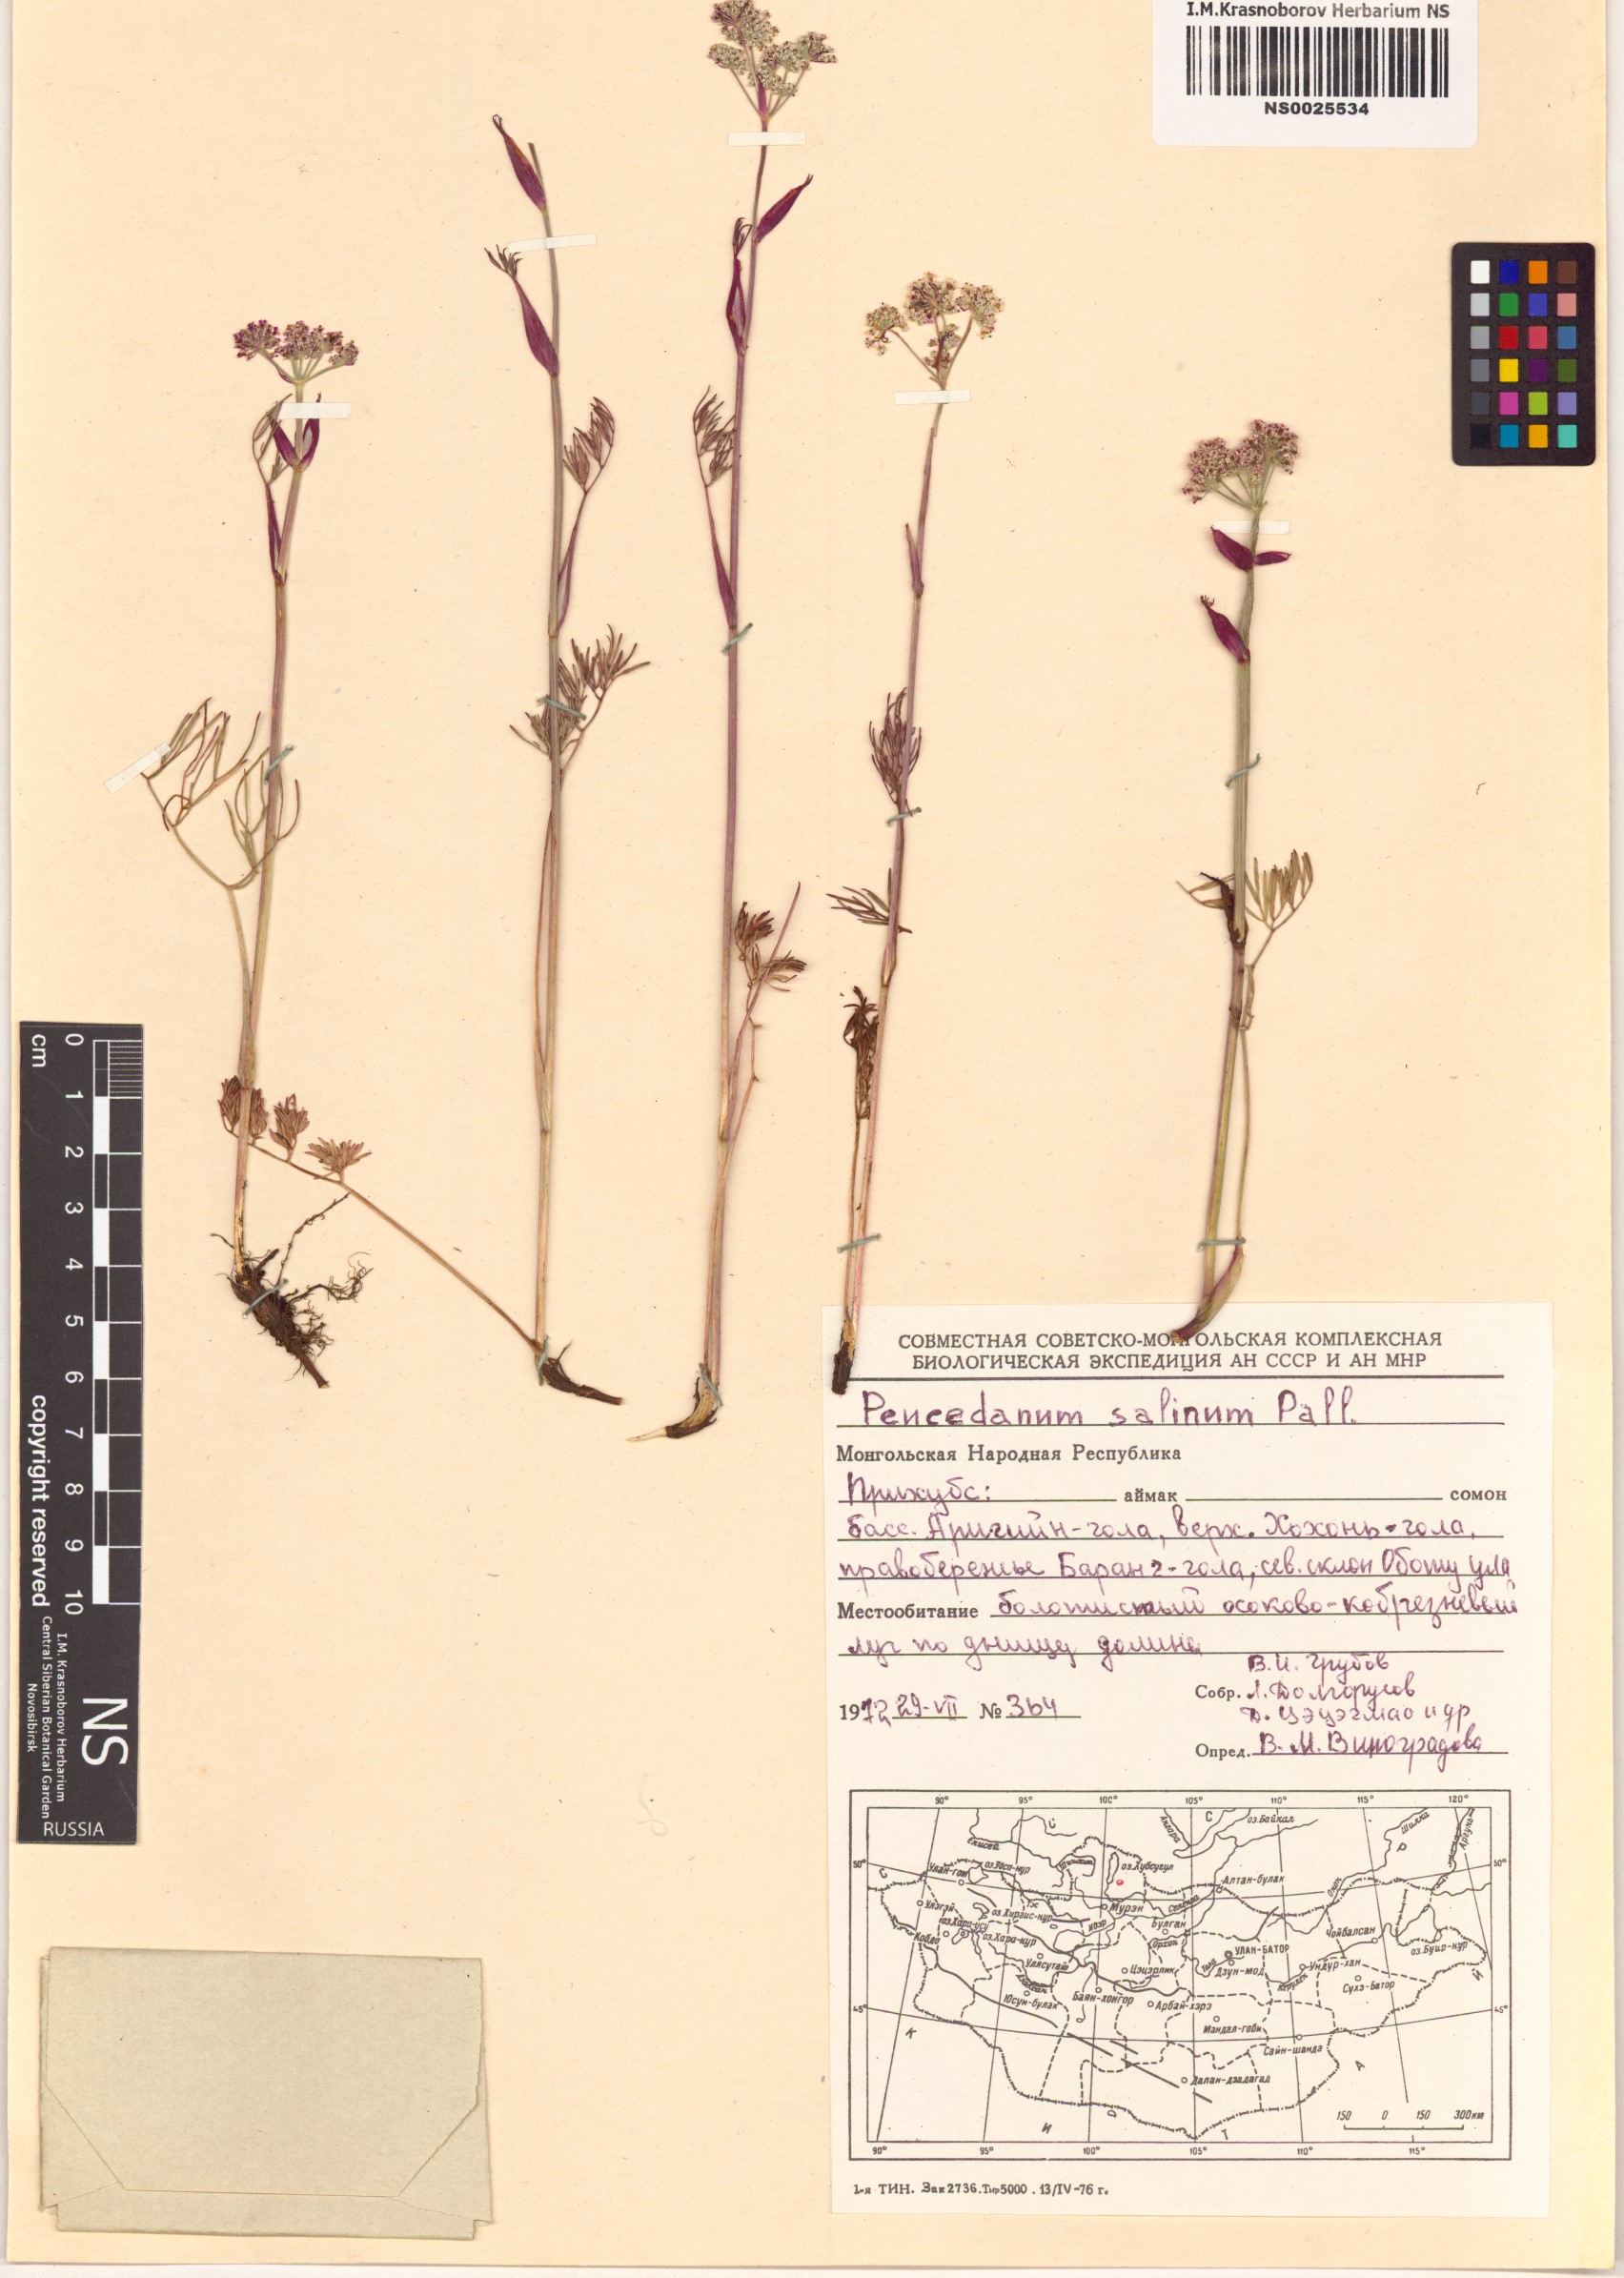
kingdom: Plantae
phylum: Tracheophyta
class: Magnoliopsida
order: Apiales
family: Apiaceae
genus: Ostericum
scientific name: Ostericum tenuifolium
